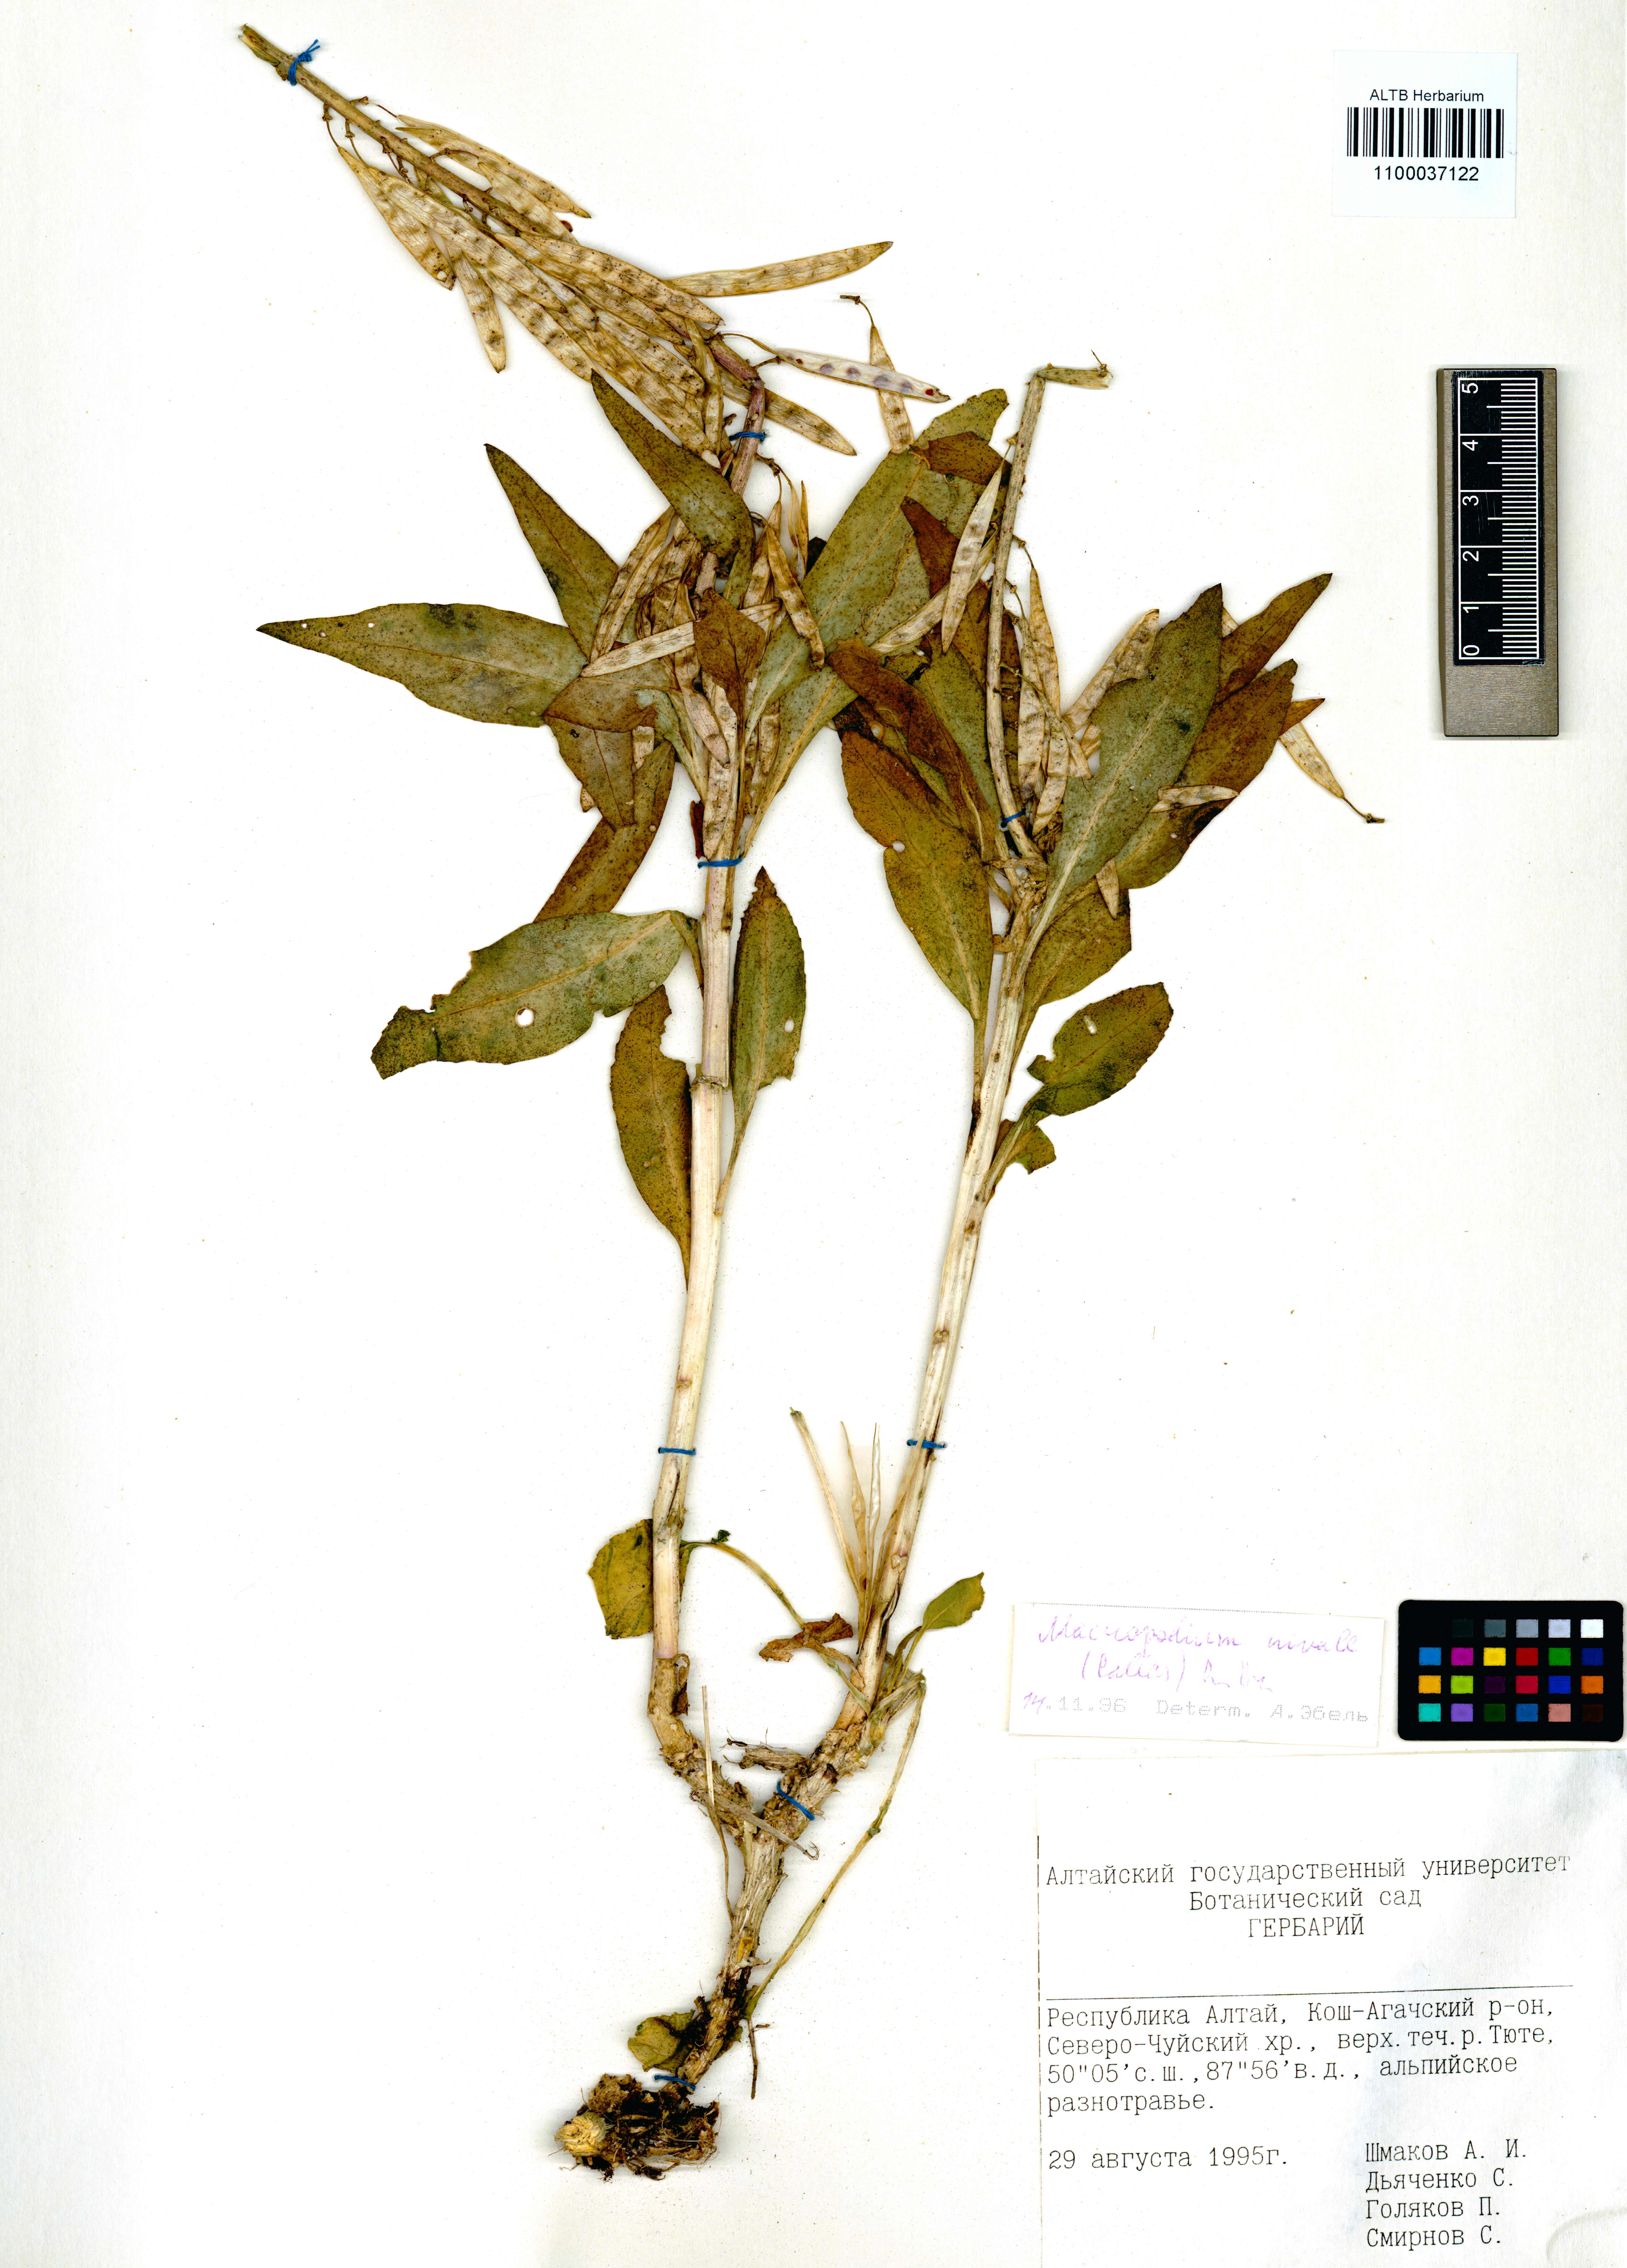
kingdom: Plantae
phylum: Tracheophyta
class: Magnoliopsida
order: Brassicales
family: Brassicaceae
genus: Macropodium
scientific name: Macropodium nivale
